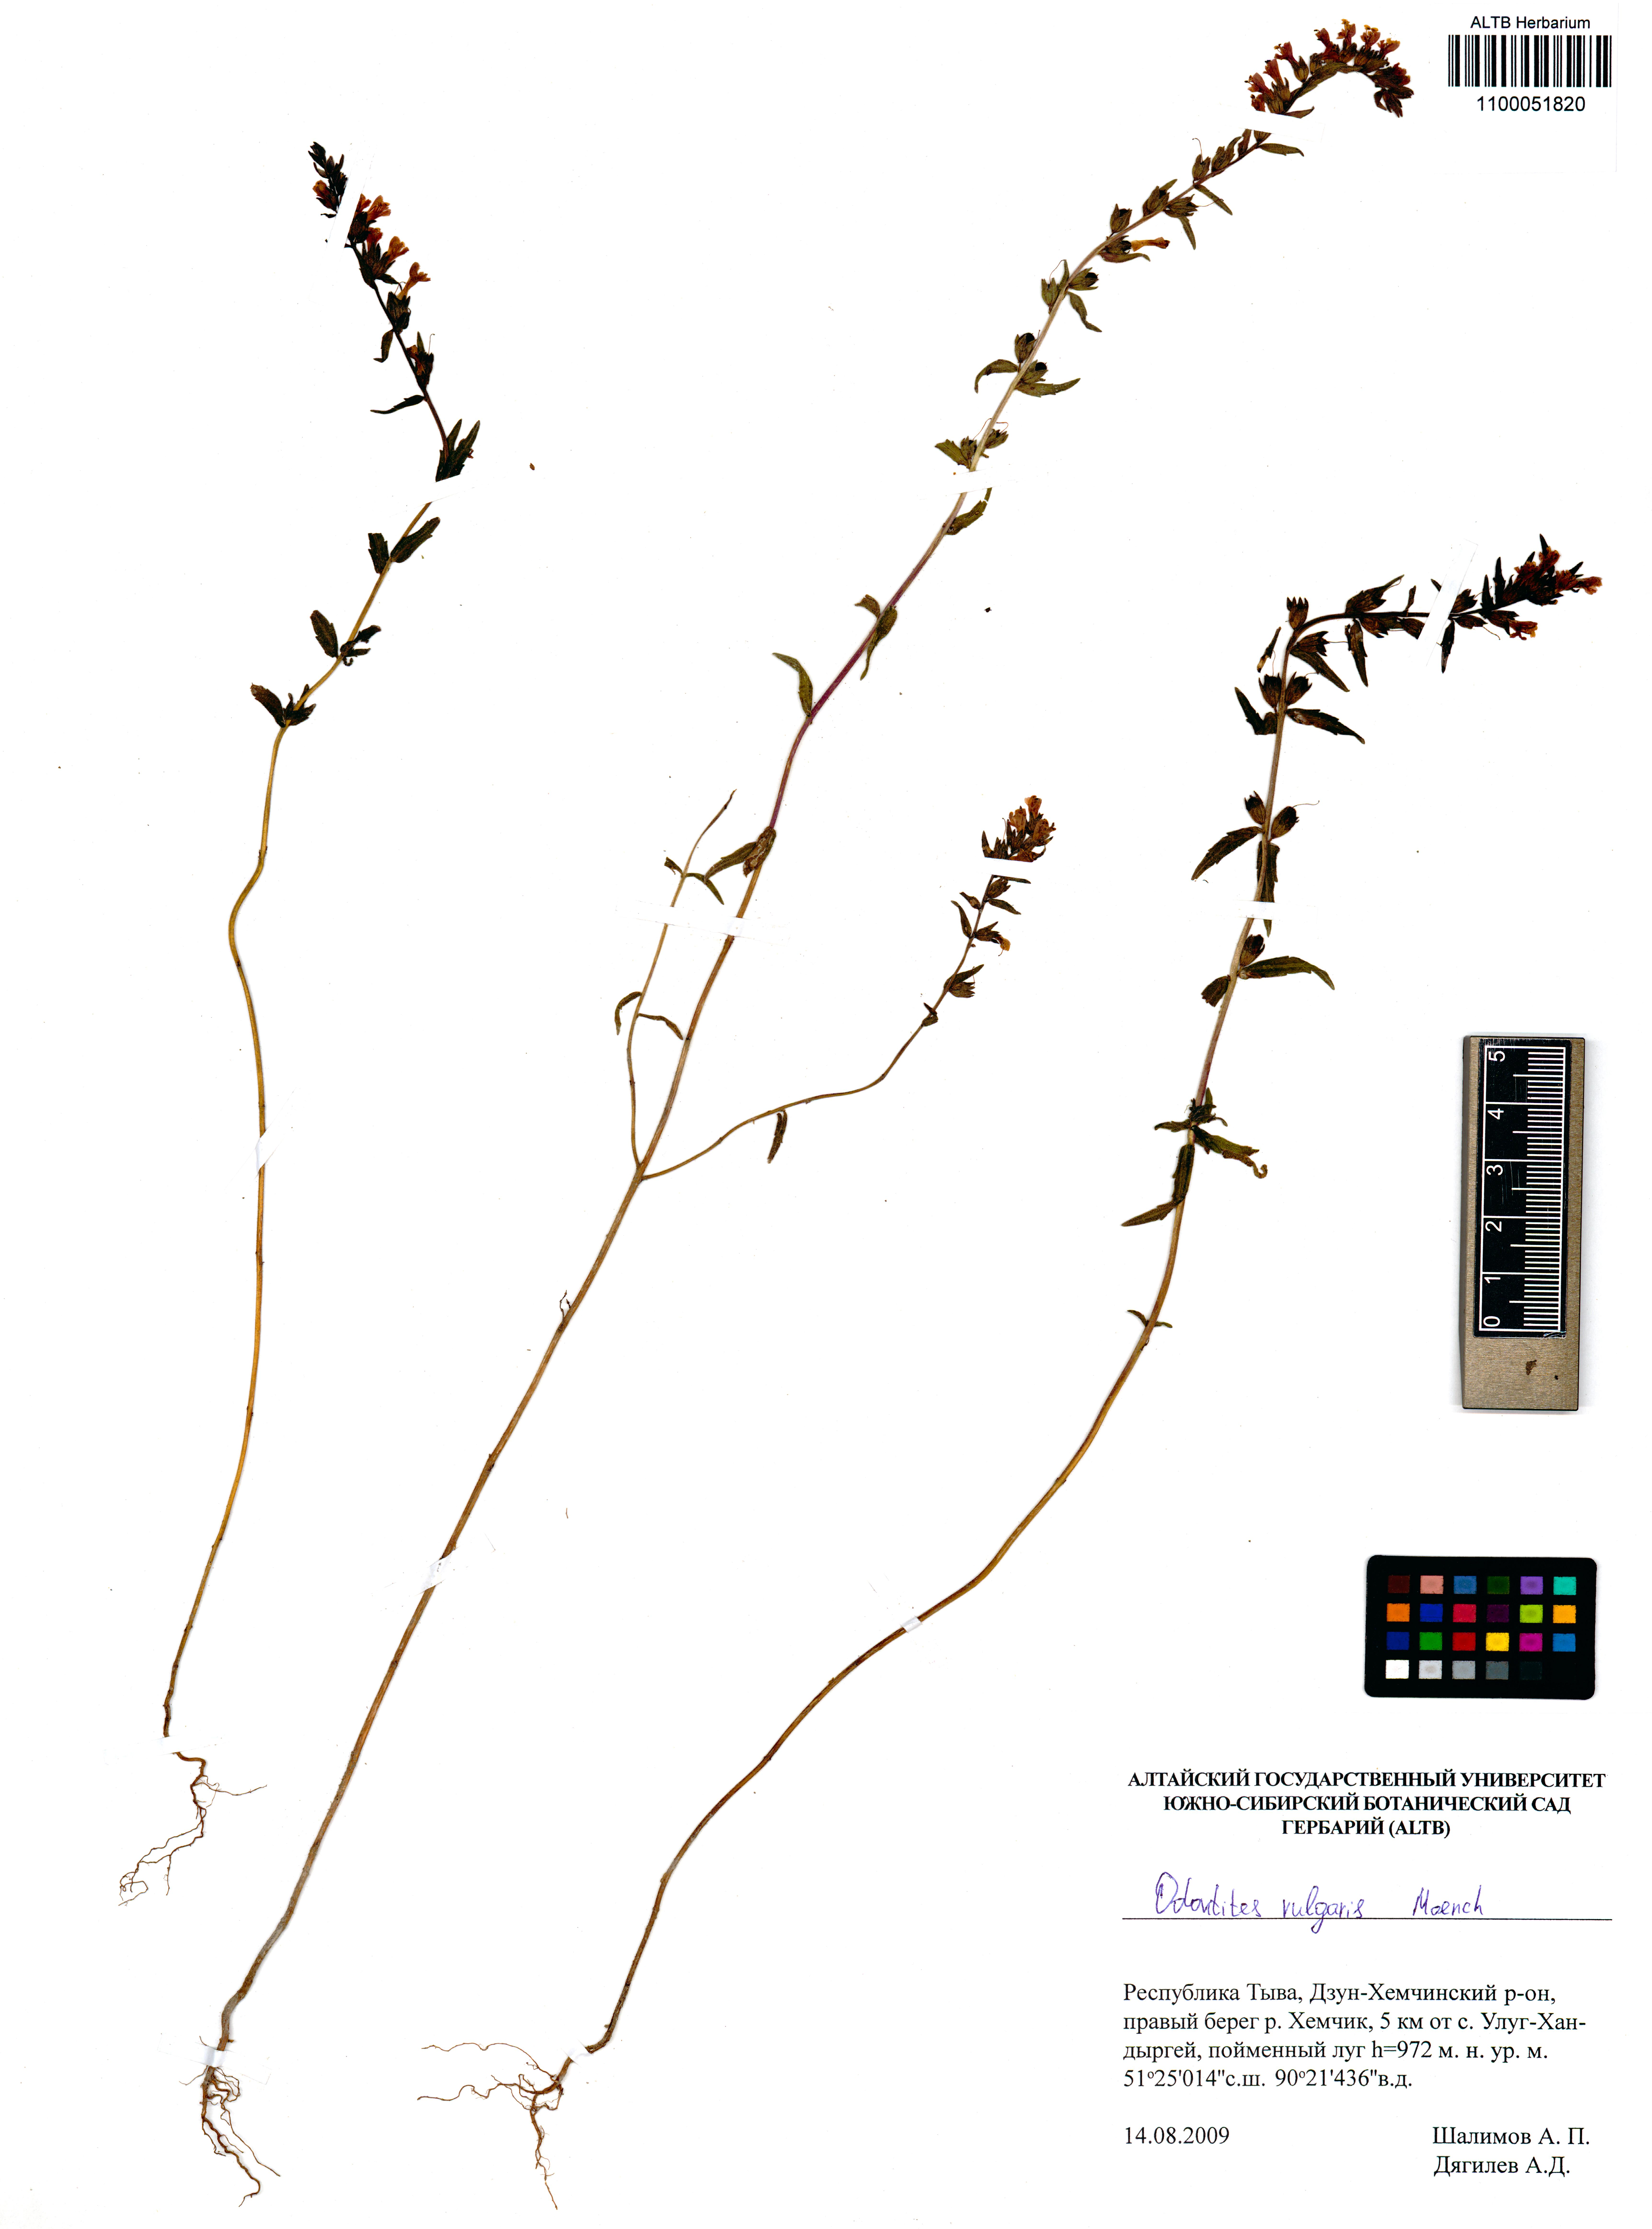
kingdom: Plantae
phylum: Tracheophyta
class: Magnoliopsida
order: Lamiales
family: Orobanchaceae
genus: Odontites
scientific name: Odontites vulgaris
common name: Broomrape
